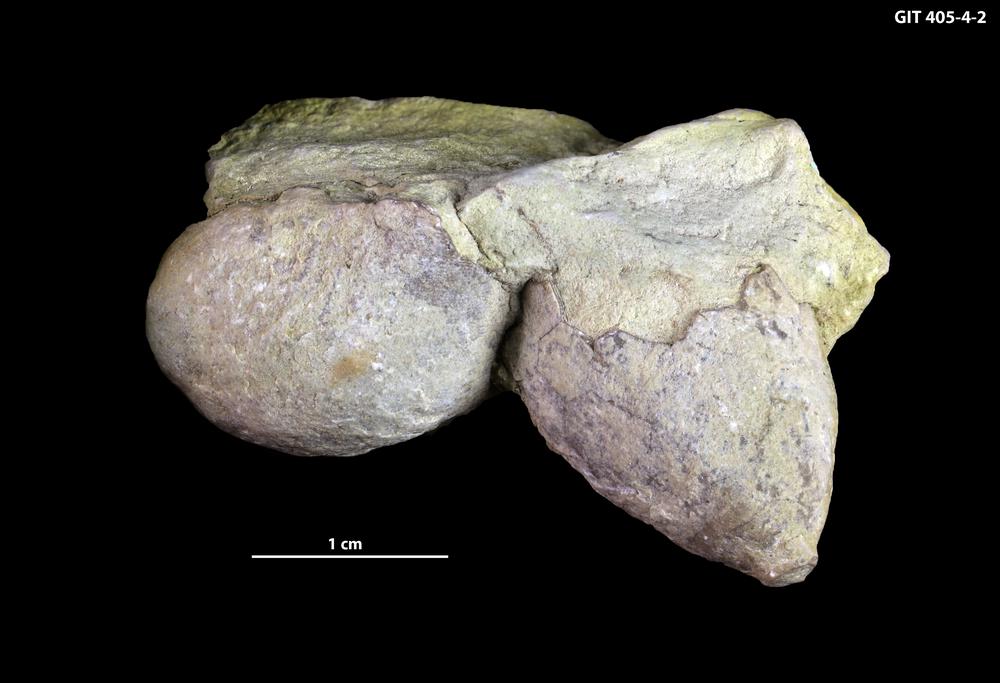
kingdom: Animalia
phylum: Echinodermata
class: Crinoidea
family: Periechocrinidae
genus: Periechocrinus
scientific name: Periechocrinus
